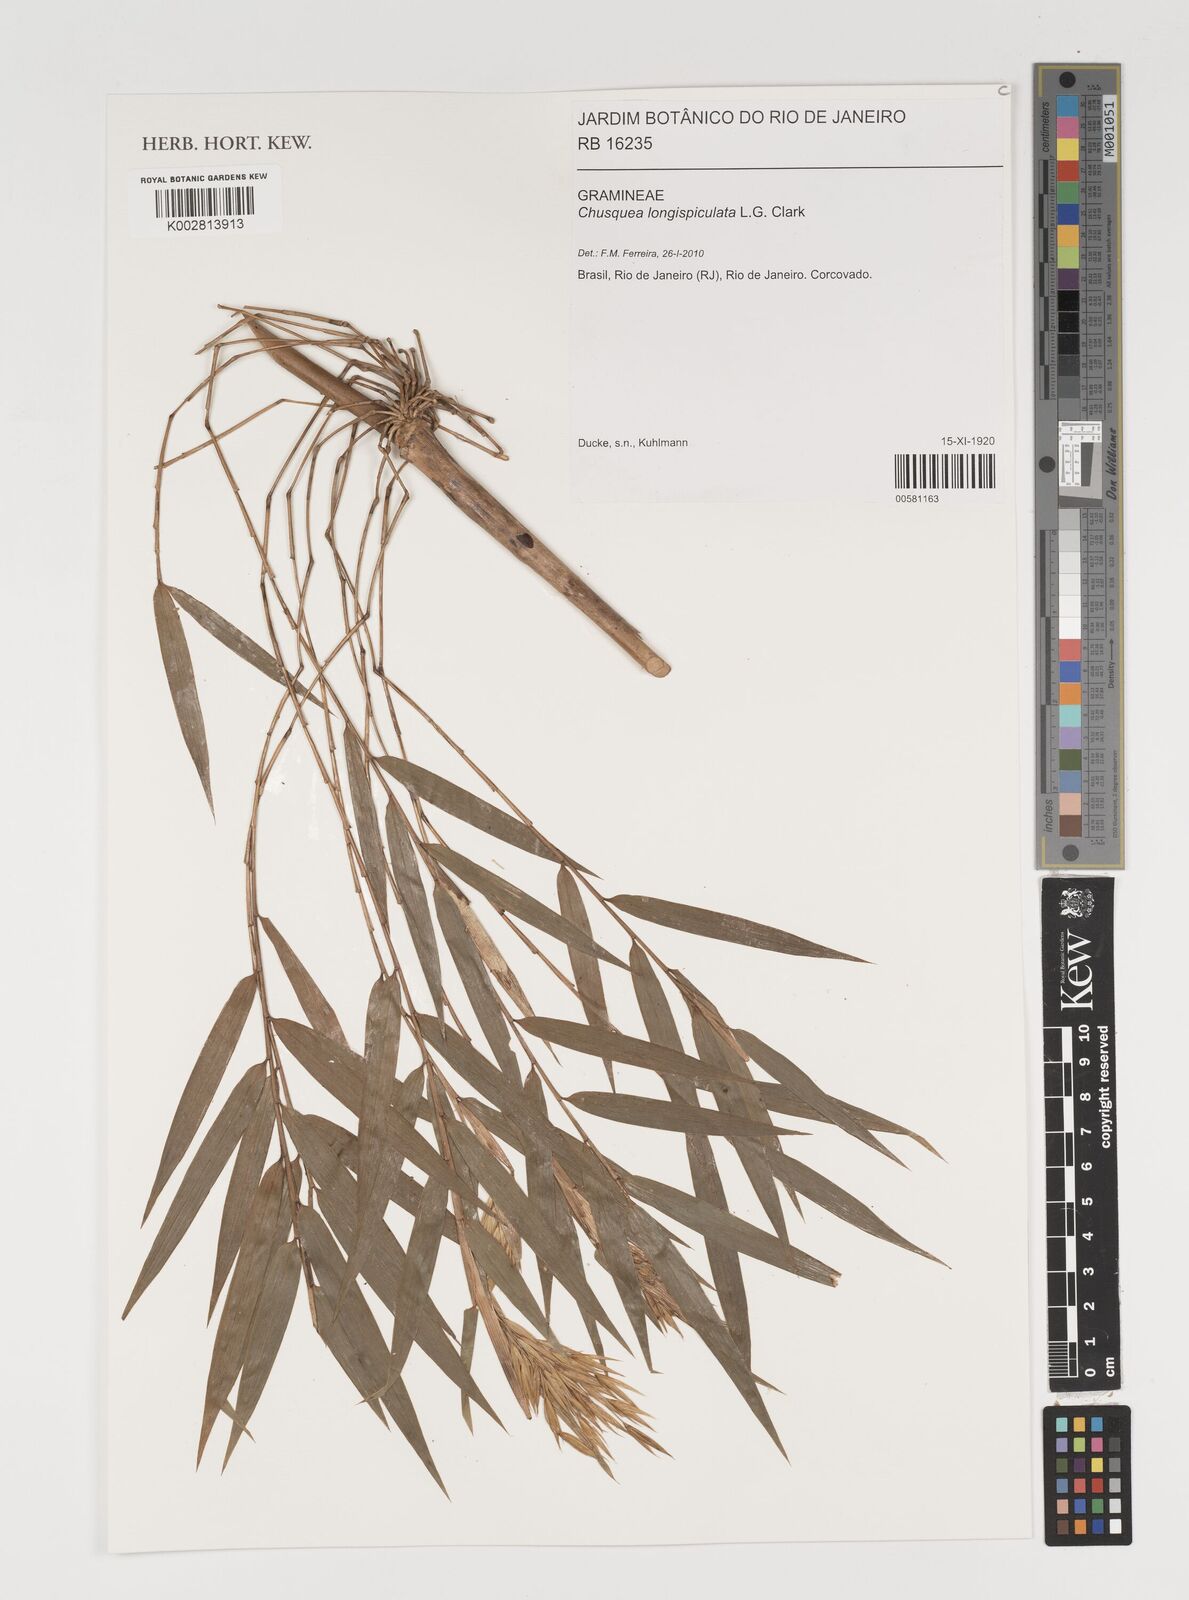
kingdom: Plantae
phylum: Tracheophyta
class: Liliopsida
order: Poales
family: Poaceae
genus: Chusquea
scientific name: Chusquea longispiculata
